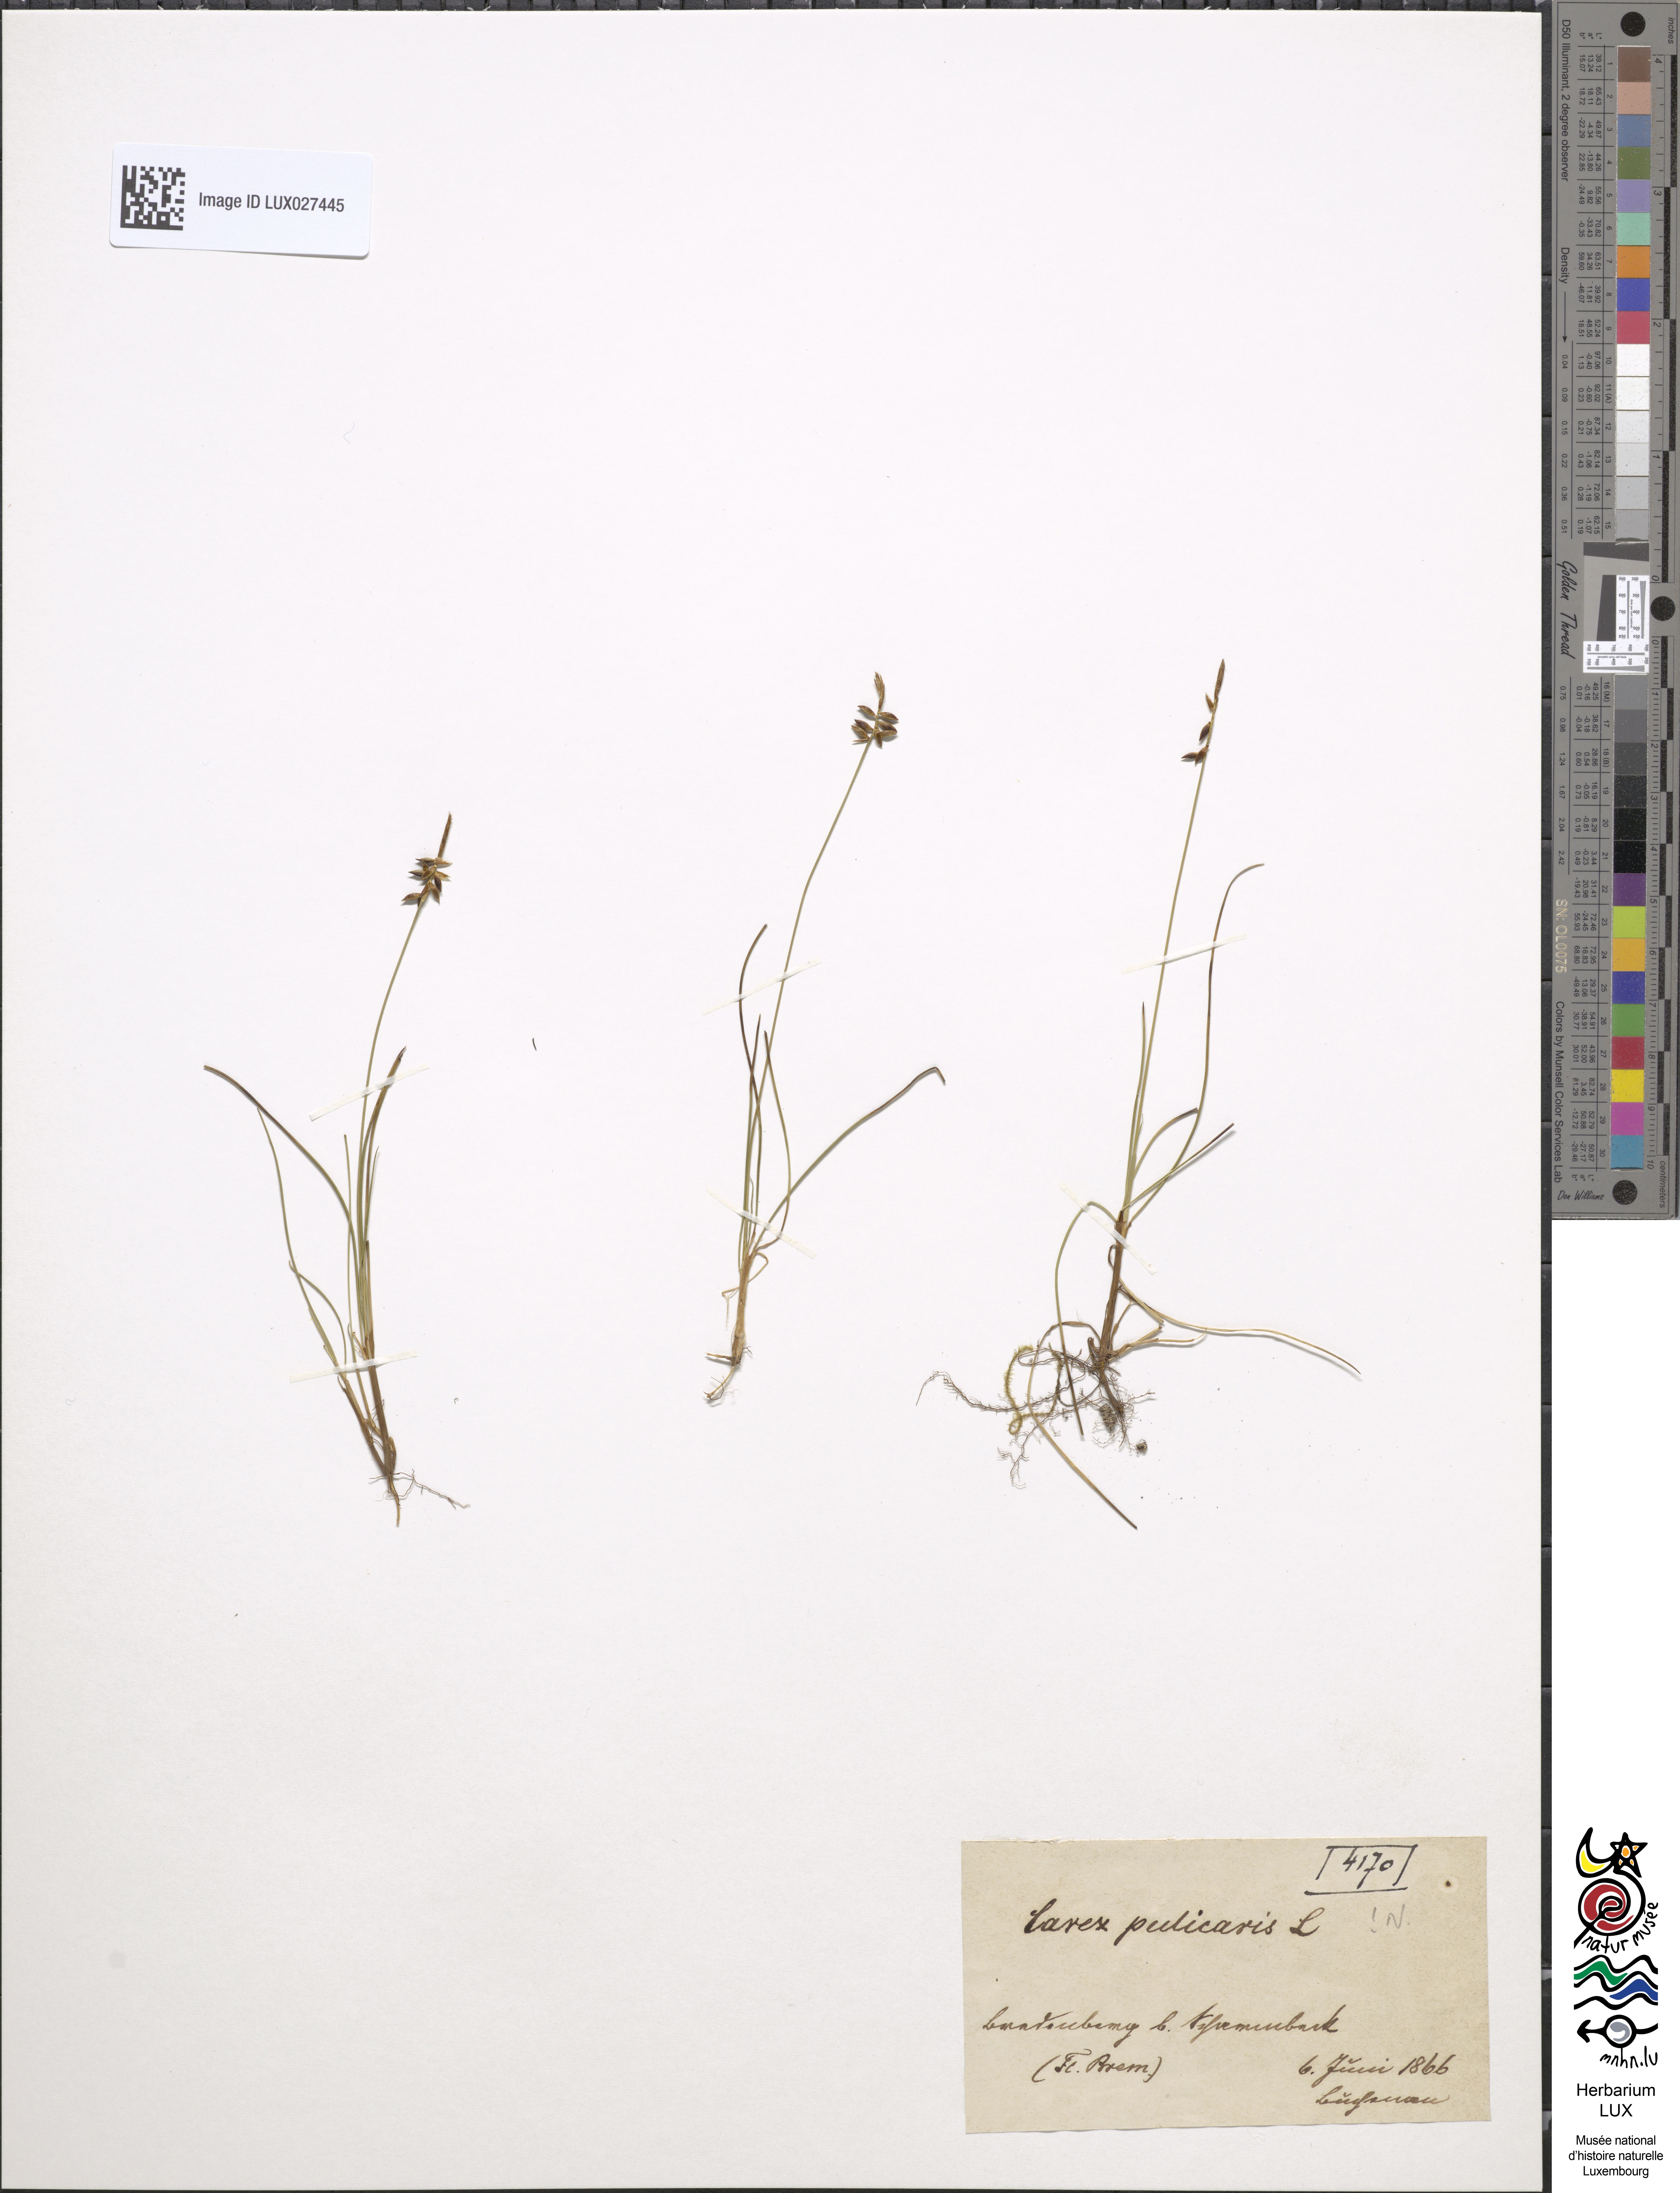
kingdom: Plantae
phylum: Tracheophyta
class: Liliopsida
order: Poales
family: Cyperaceae
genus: Carex
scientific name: Carex pulicaris
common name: Flea sedge
